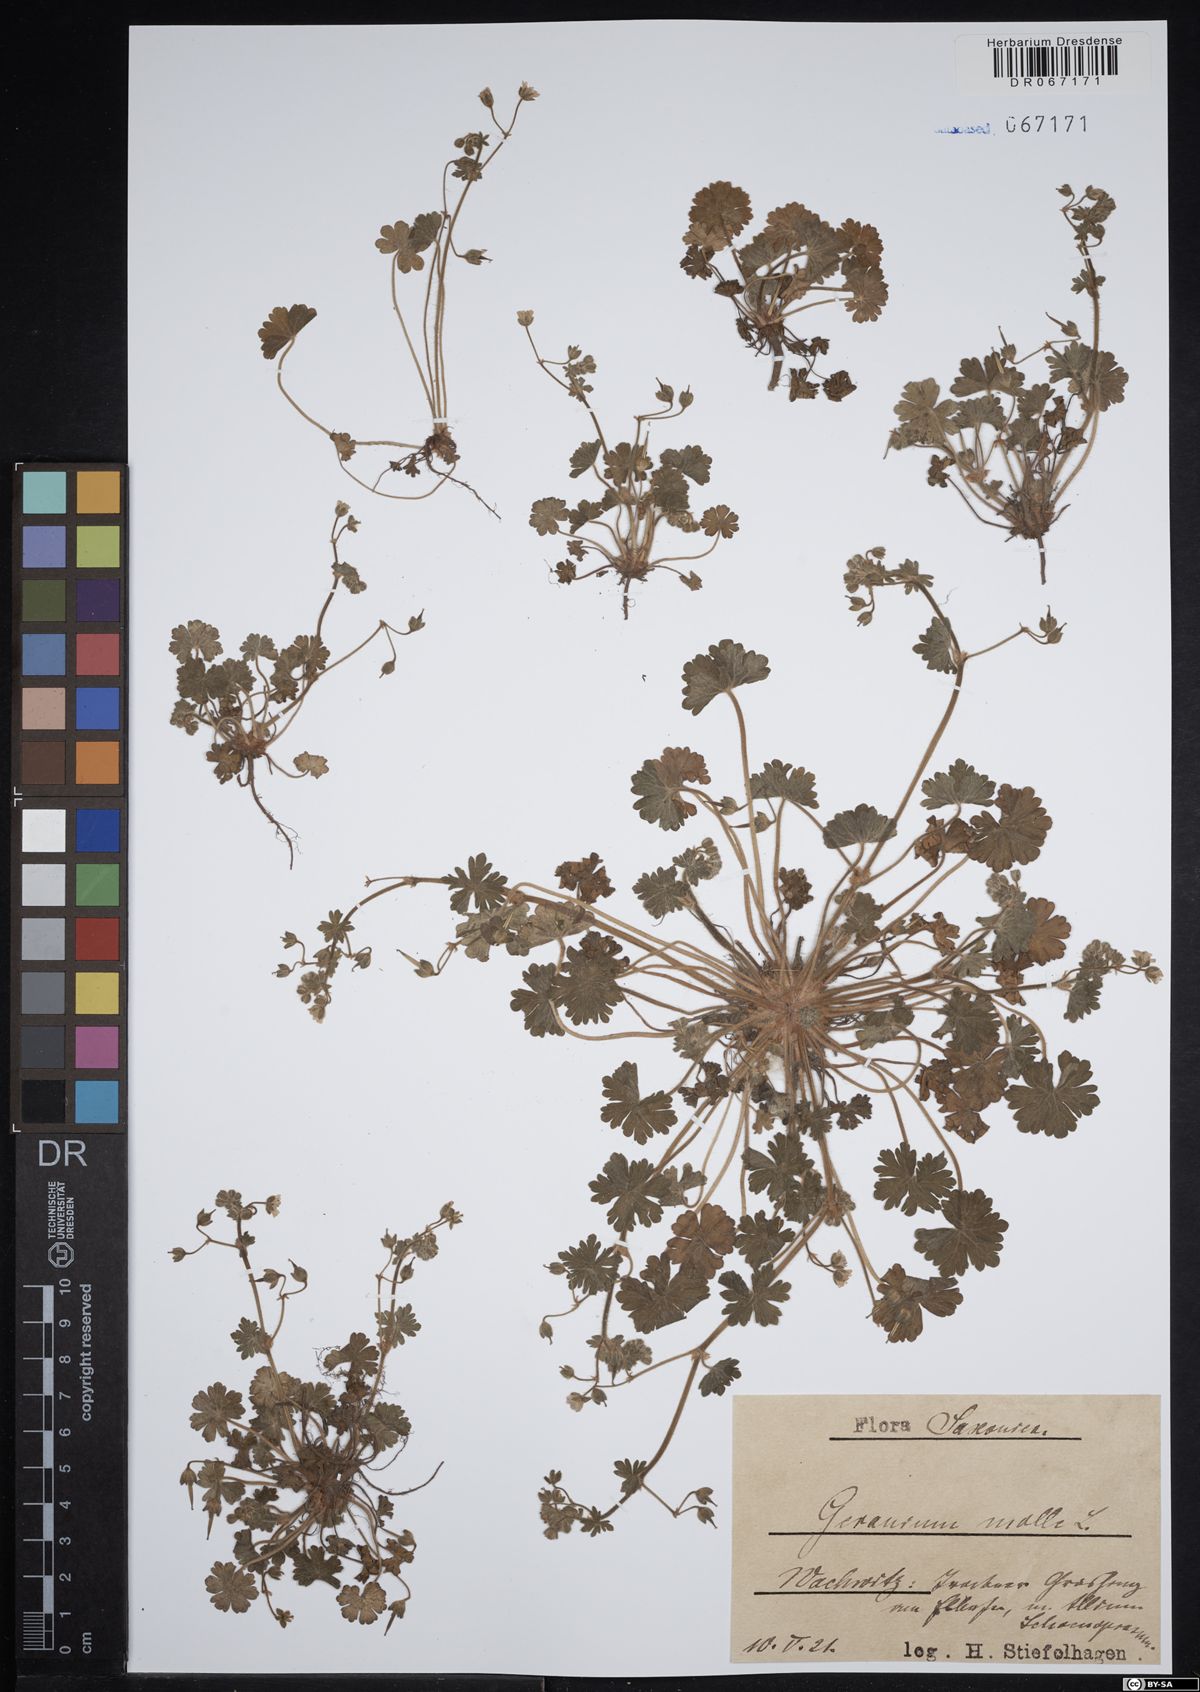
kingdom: Plantae
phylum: Tracheophyta
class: Magnoliopsida
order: Geraniales
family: Geraniaceae
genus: Geranium
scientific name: Geranium molle
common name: Dove's-foot crane's-bill
